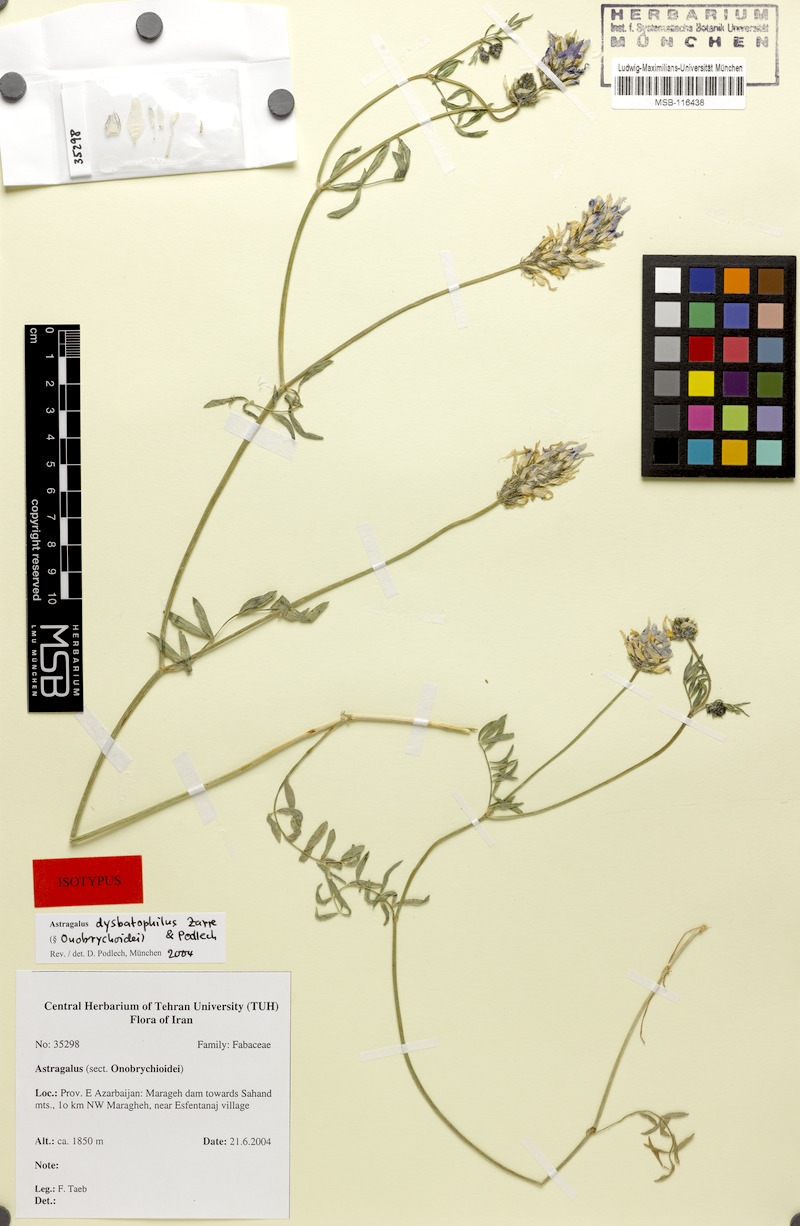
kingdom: Plantae
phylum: Tracheophyta
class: Magnoliopsida
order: Fabales
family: Fabaceae
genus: Astragalus
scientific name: Astragalus dysbatophilus
